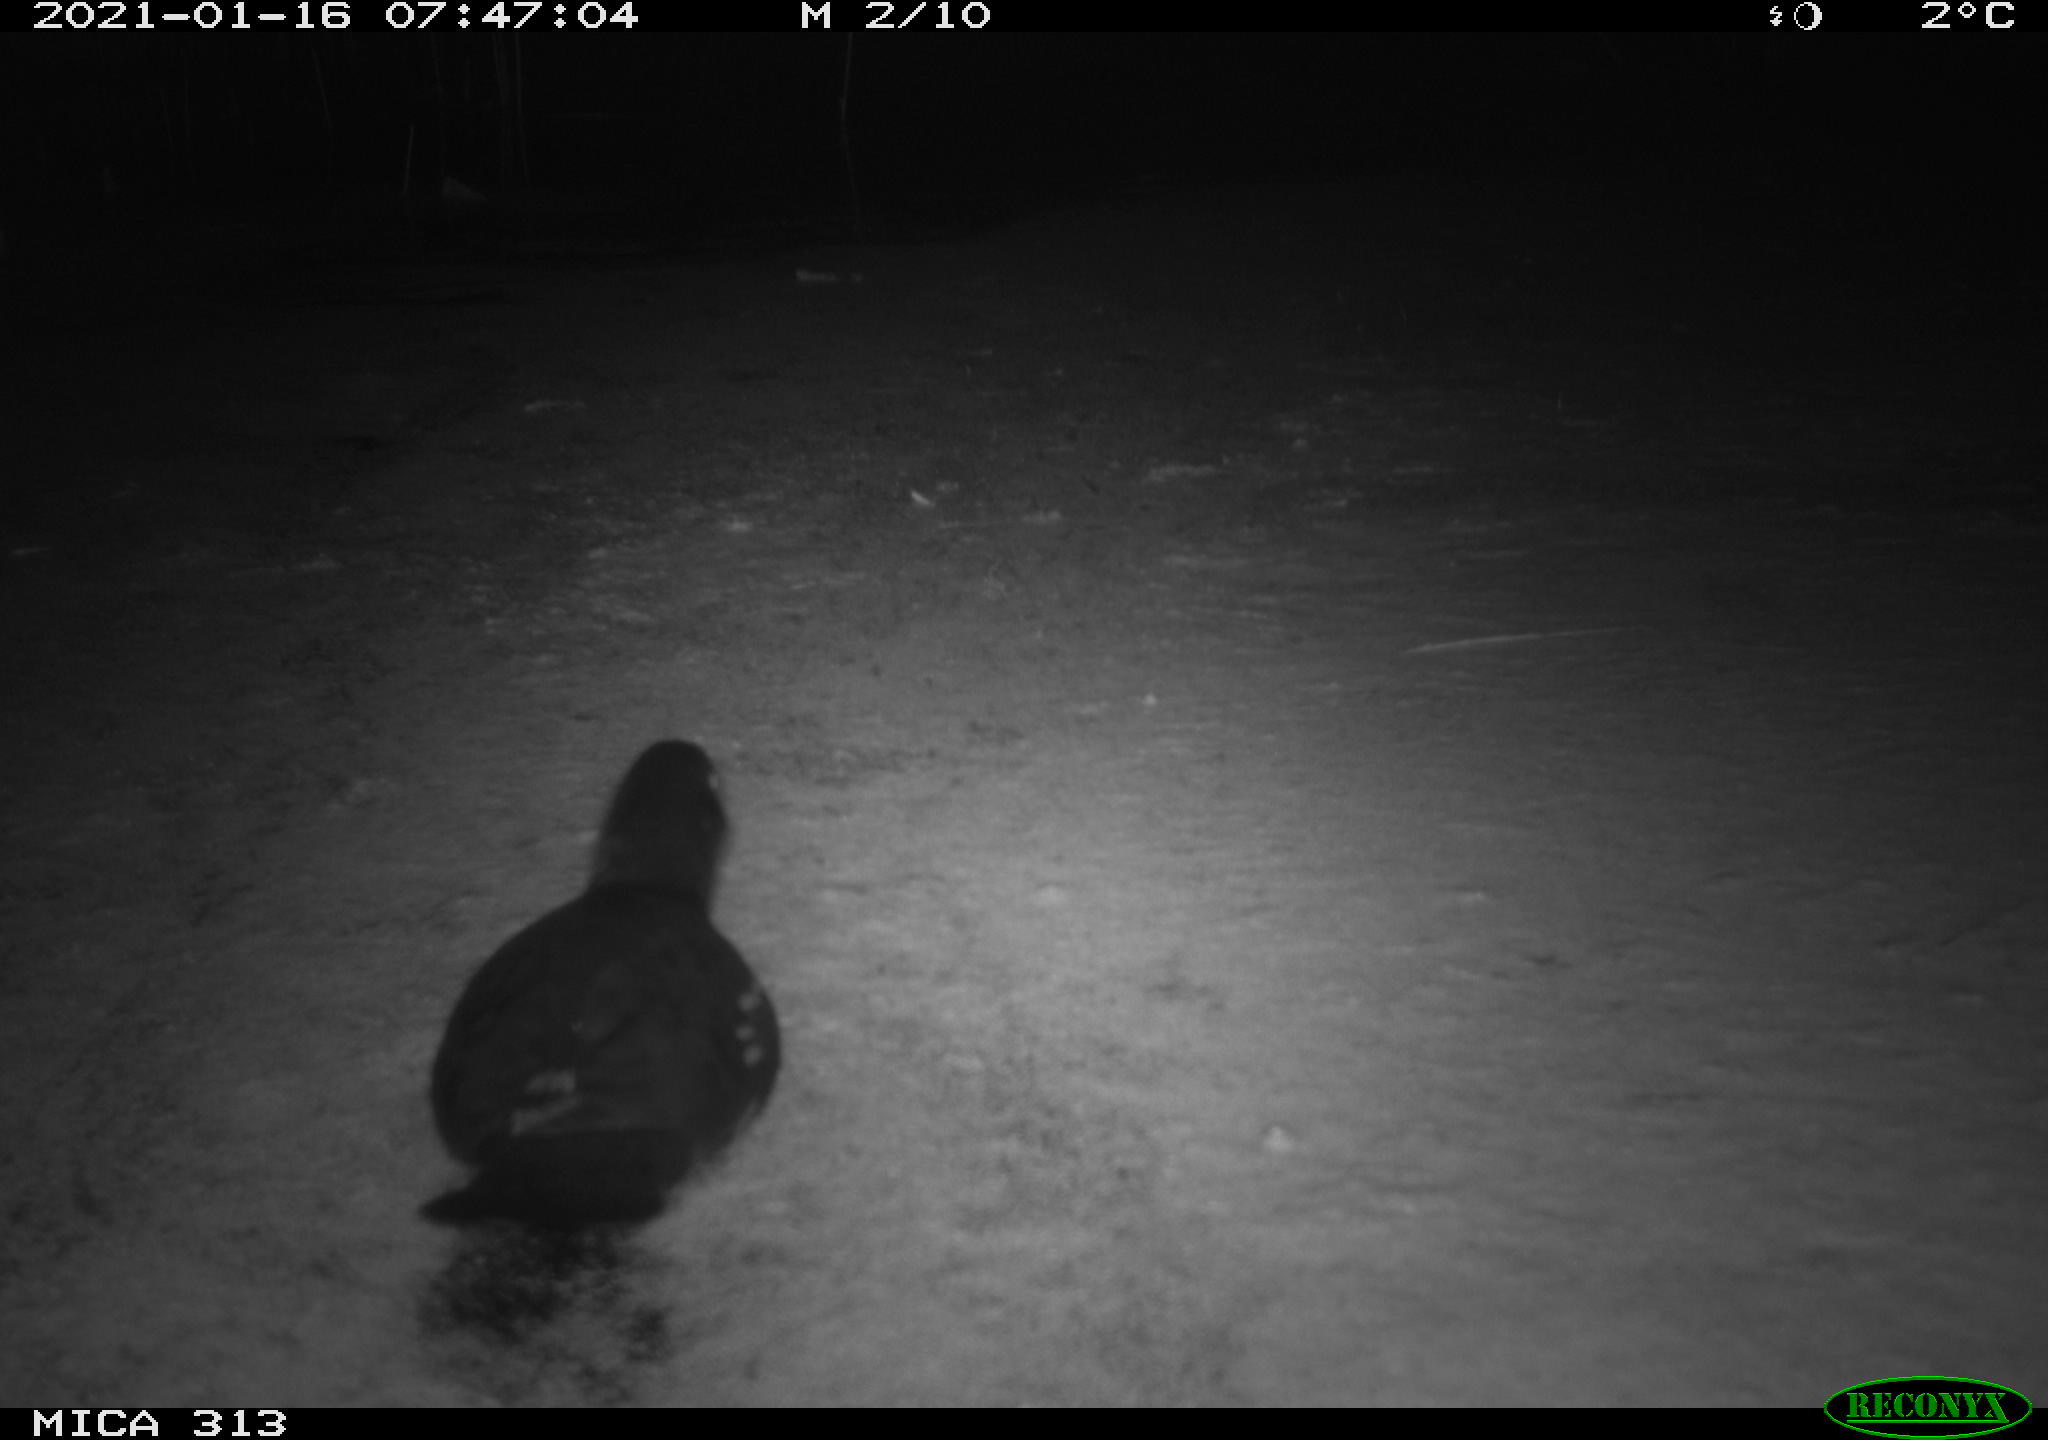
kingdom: Animalia
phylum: Chordata
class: Aves
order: Gruiformes
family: Rallidae
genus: Gallinula
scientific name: Gallinula chloropus
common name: Common moorhen
